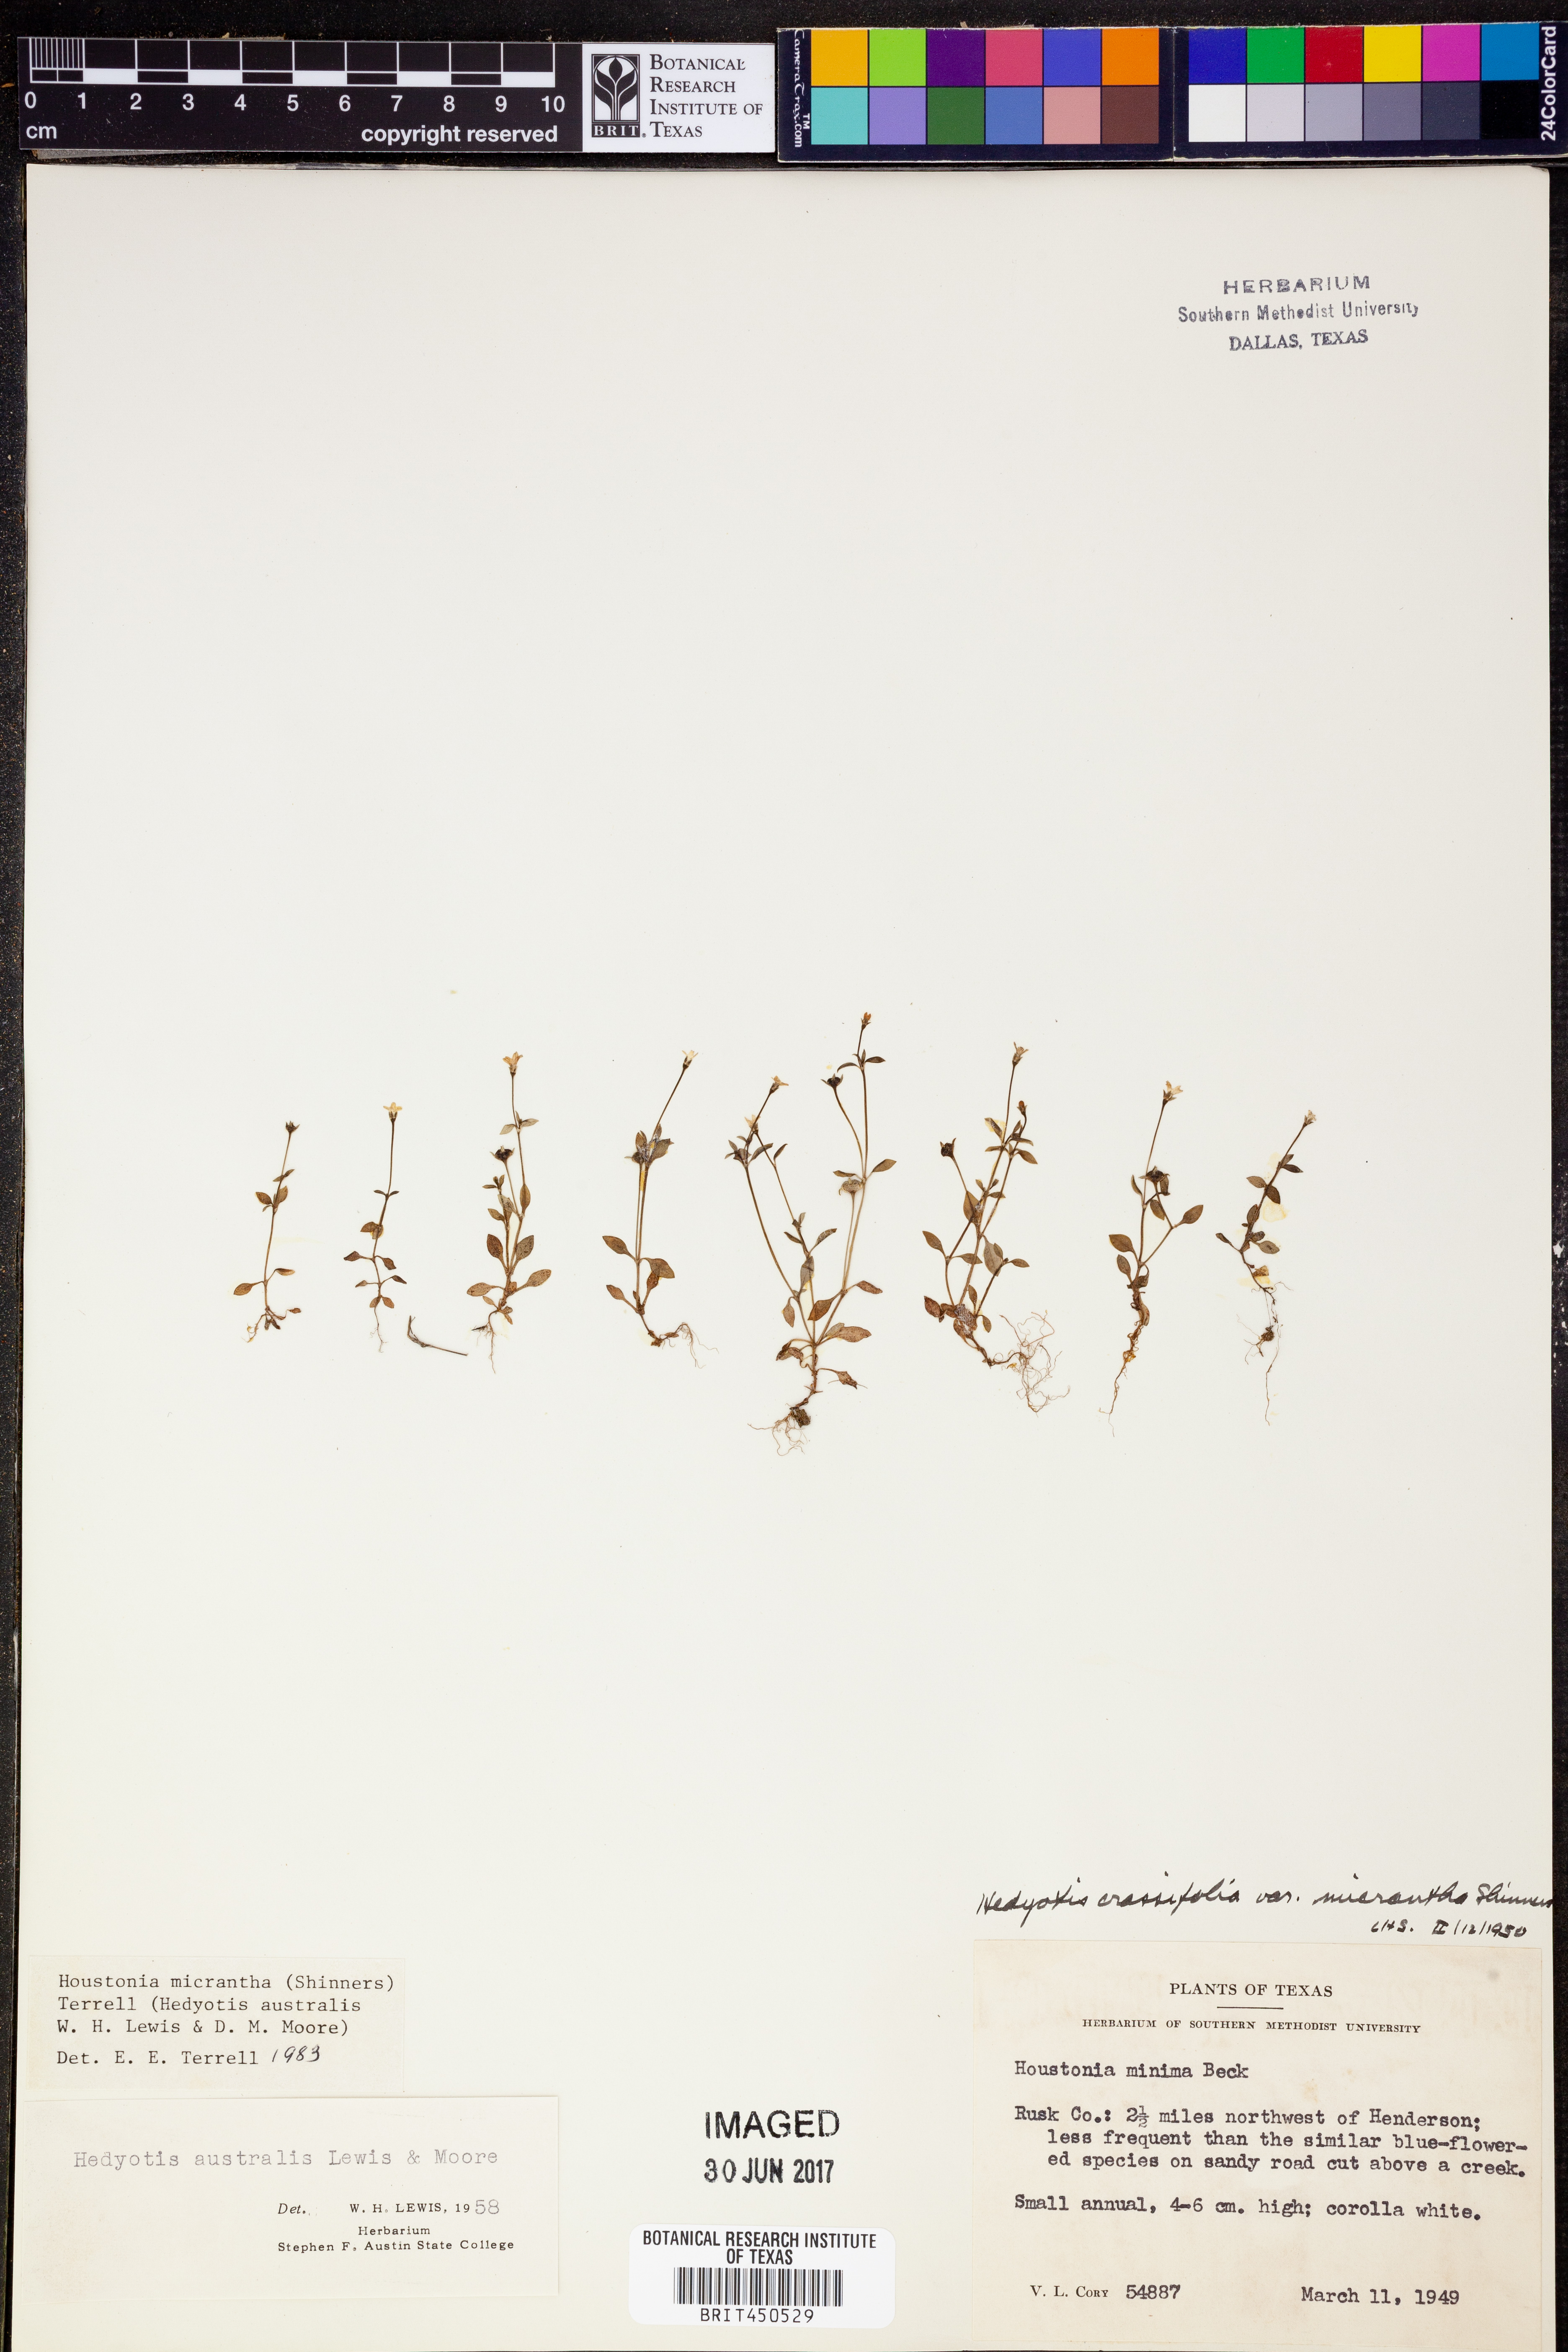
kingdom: Plantae
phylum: Tracheophyta
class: Magnoliopsida
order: Gentianales
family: Rubiaceae
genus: Houstonia
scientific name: Houstonia micrantha
